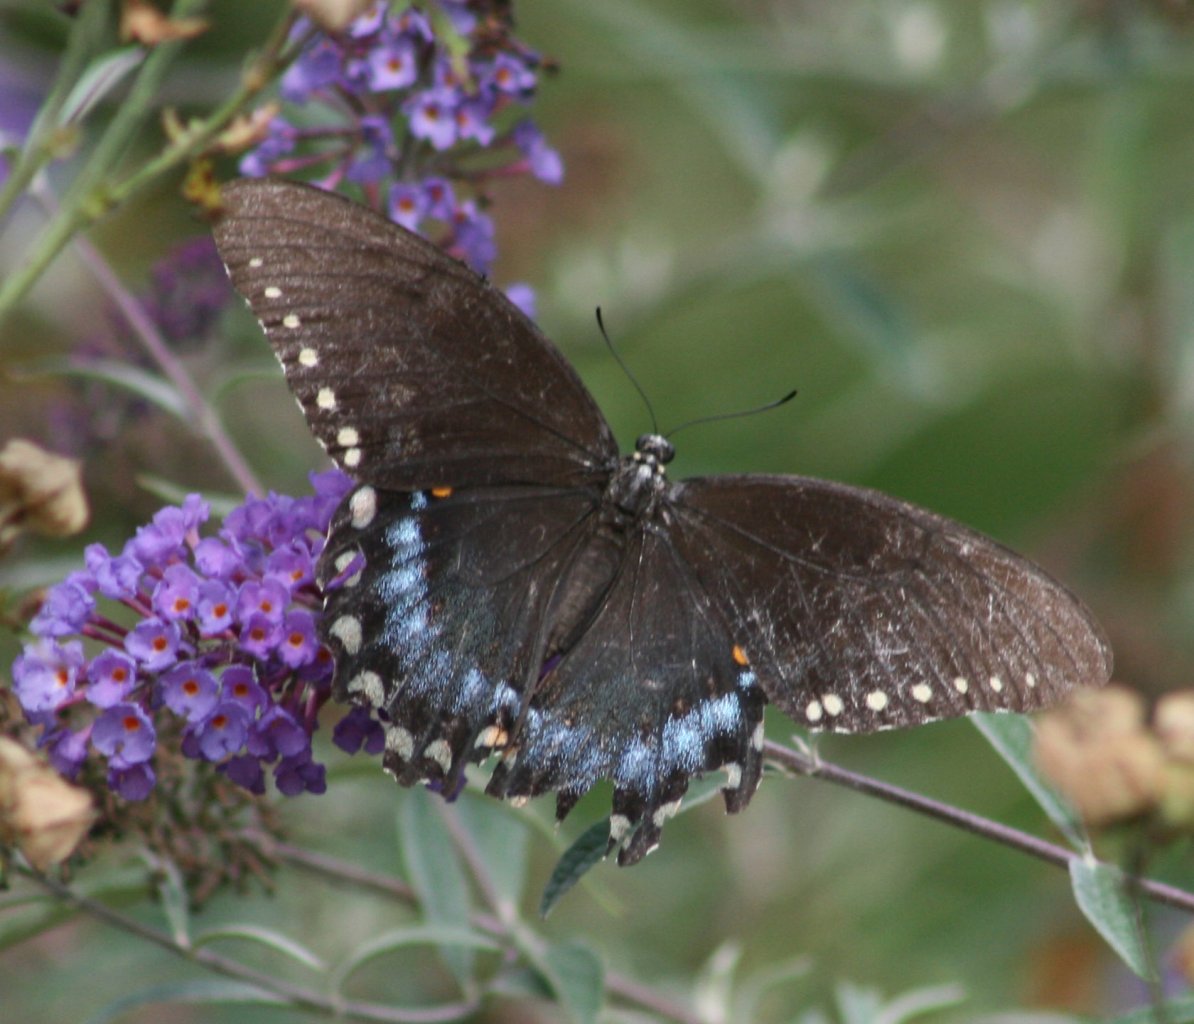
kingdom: Animalia
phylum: Arthropoda
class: Insecta
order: Lepidoptera
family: Papilionidae
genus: Pterourus
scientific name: Pterourus troilus
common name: Spicebush Swallowtail
